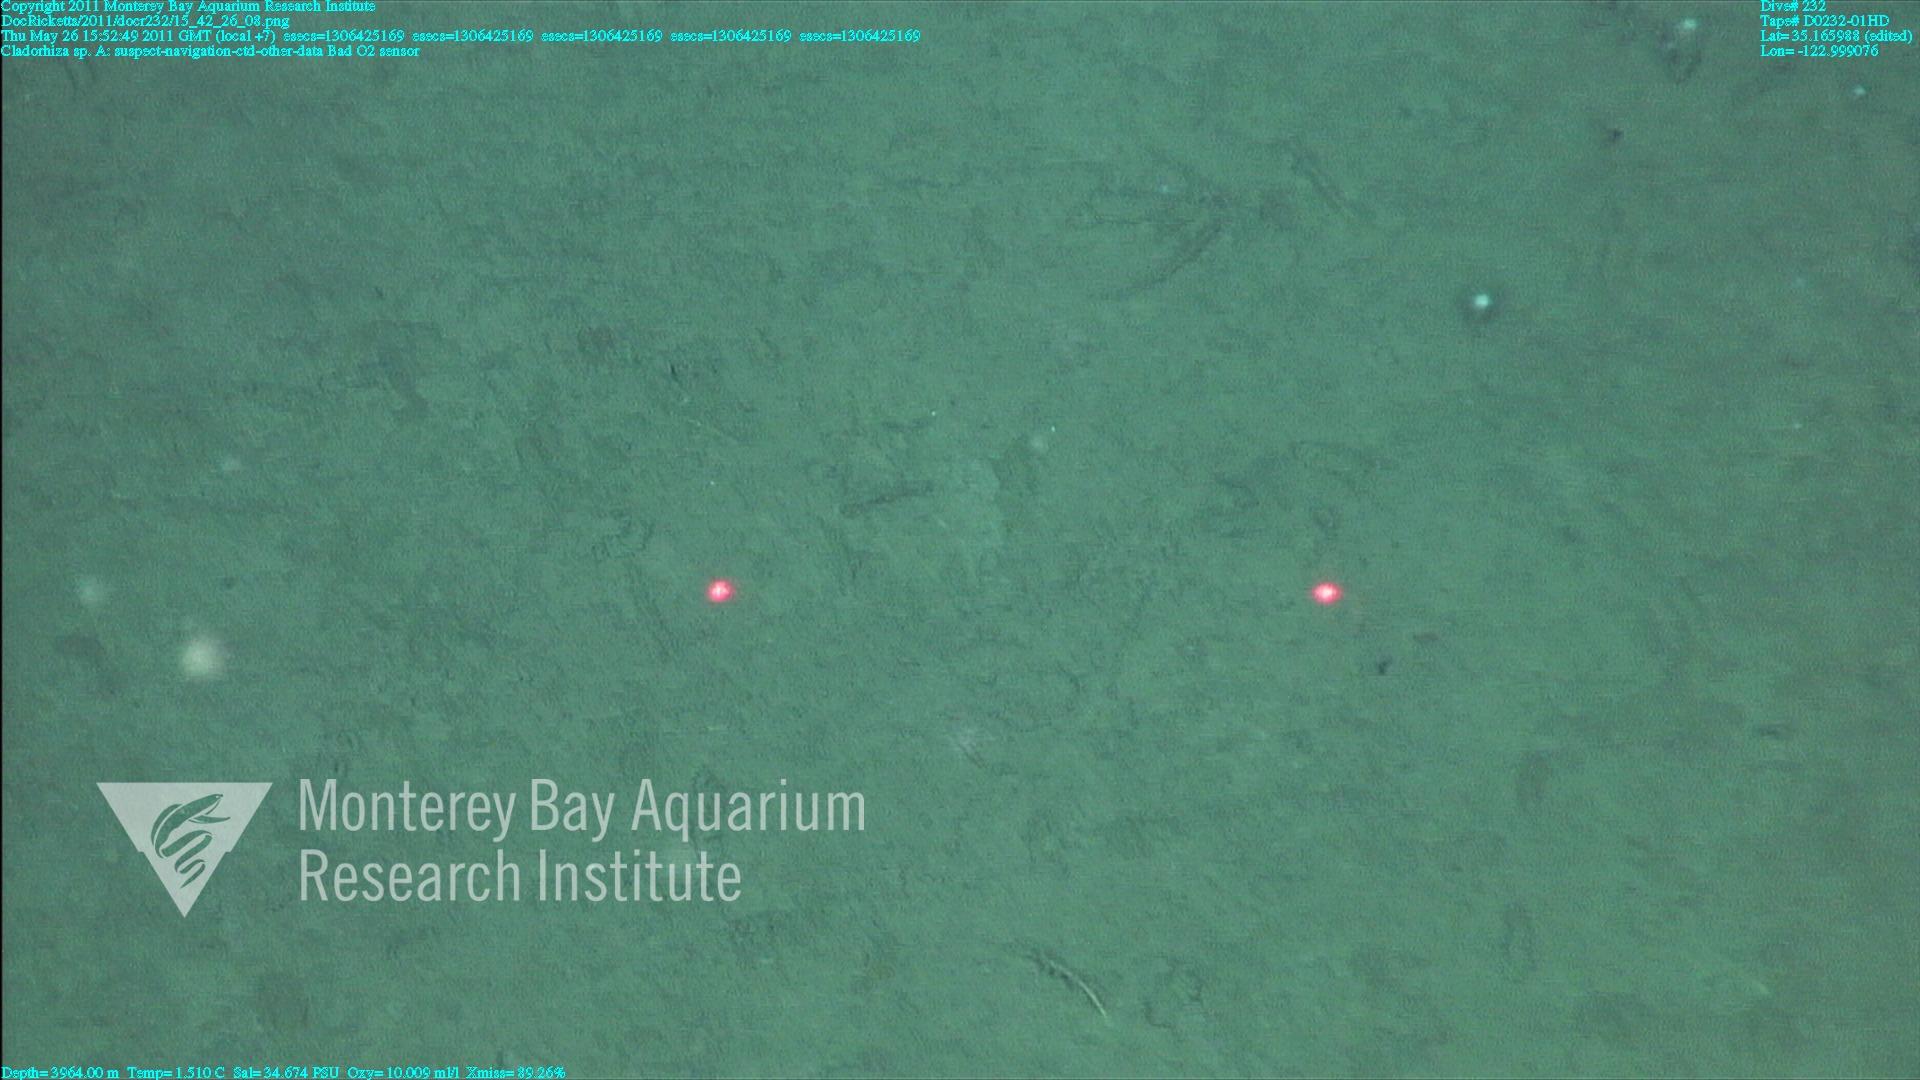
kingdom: Animalia
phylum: Porifera
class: Demospongiae
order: Poecilosclerida
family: Cladorhizidae
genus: Cladorhiza
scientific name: Cladorhiza
